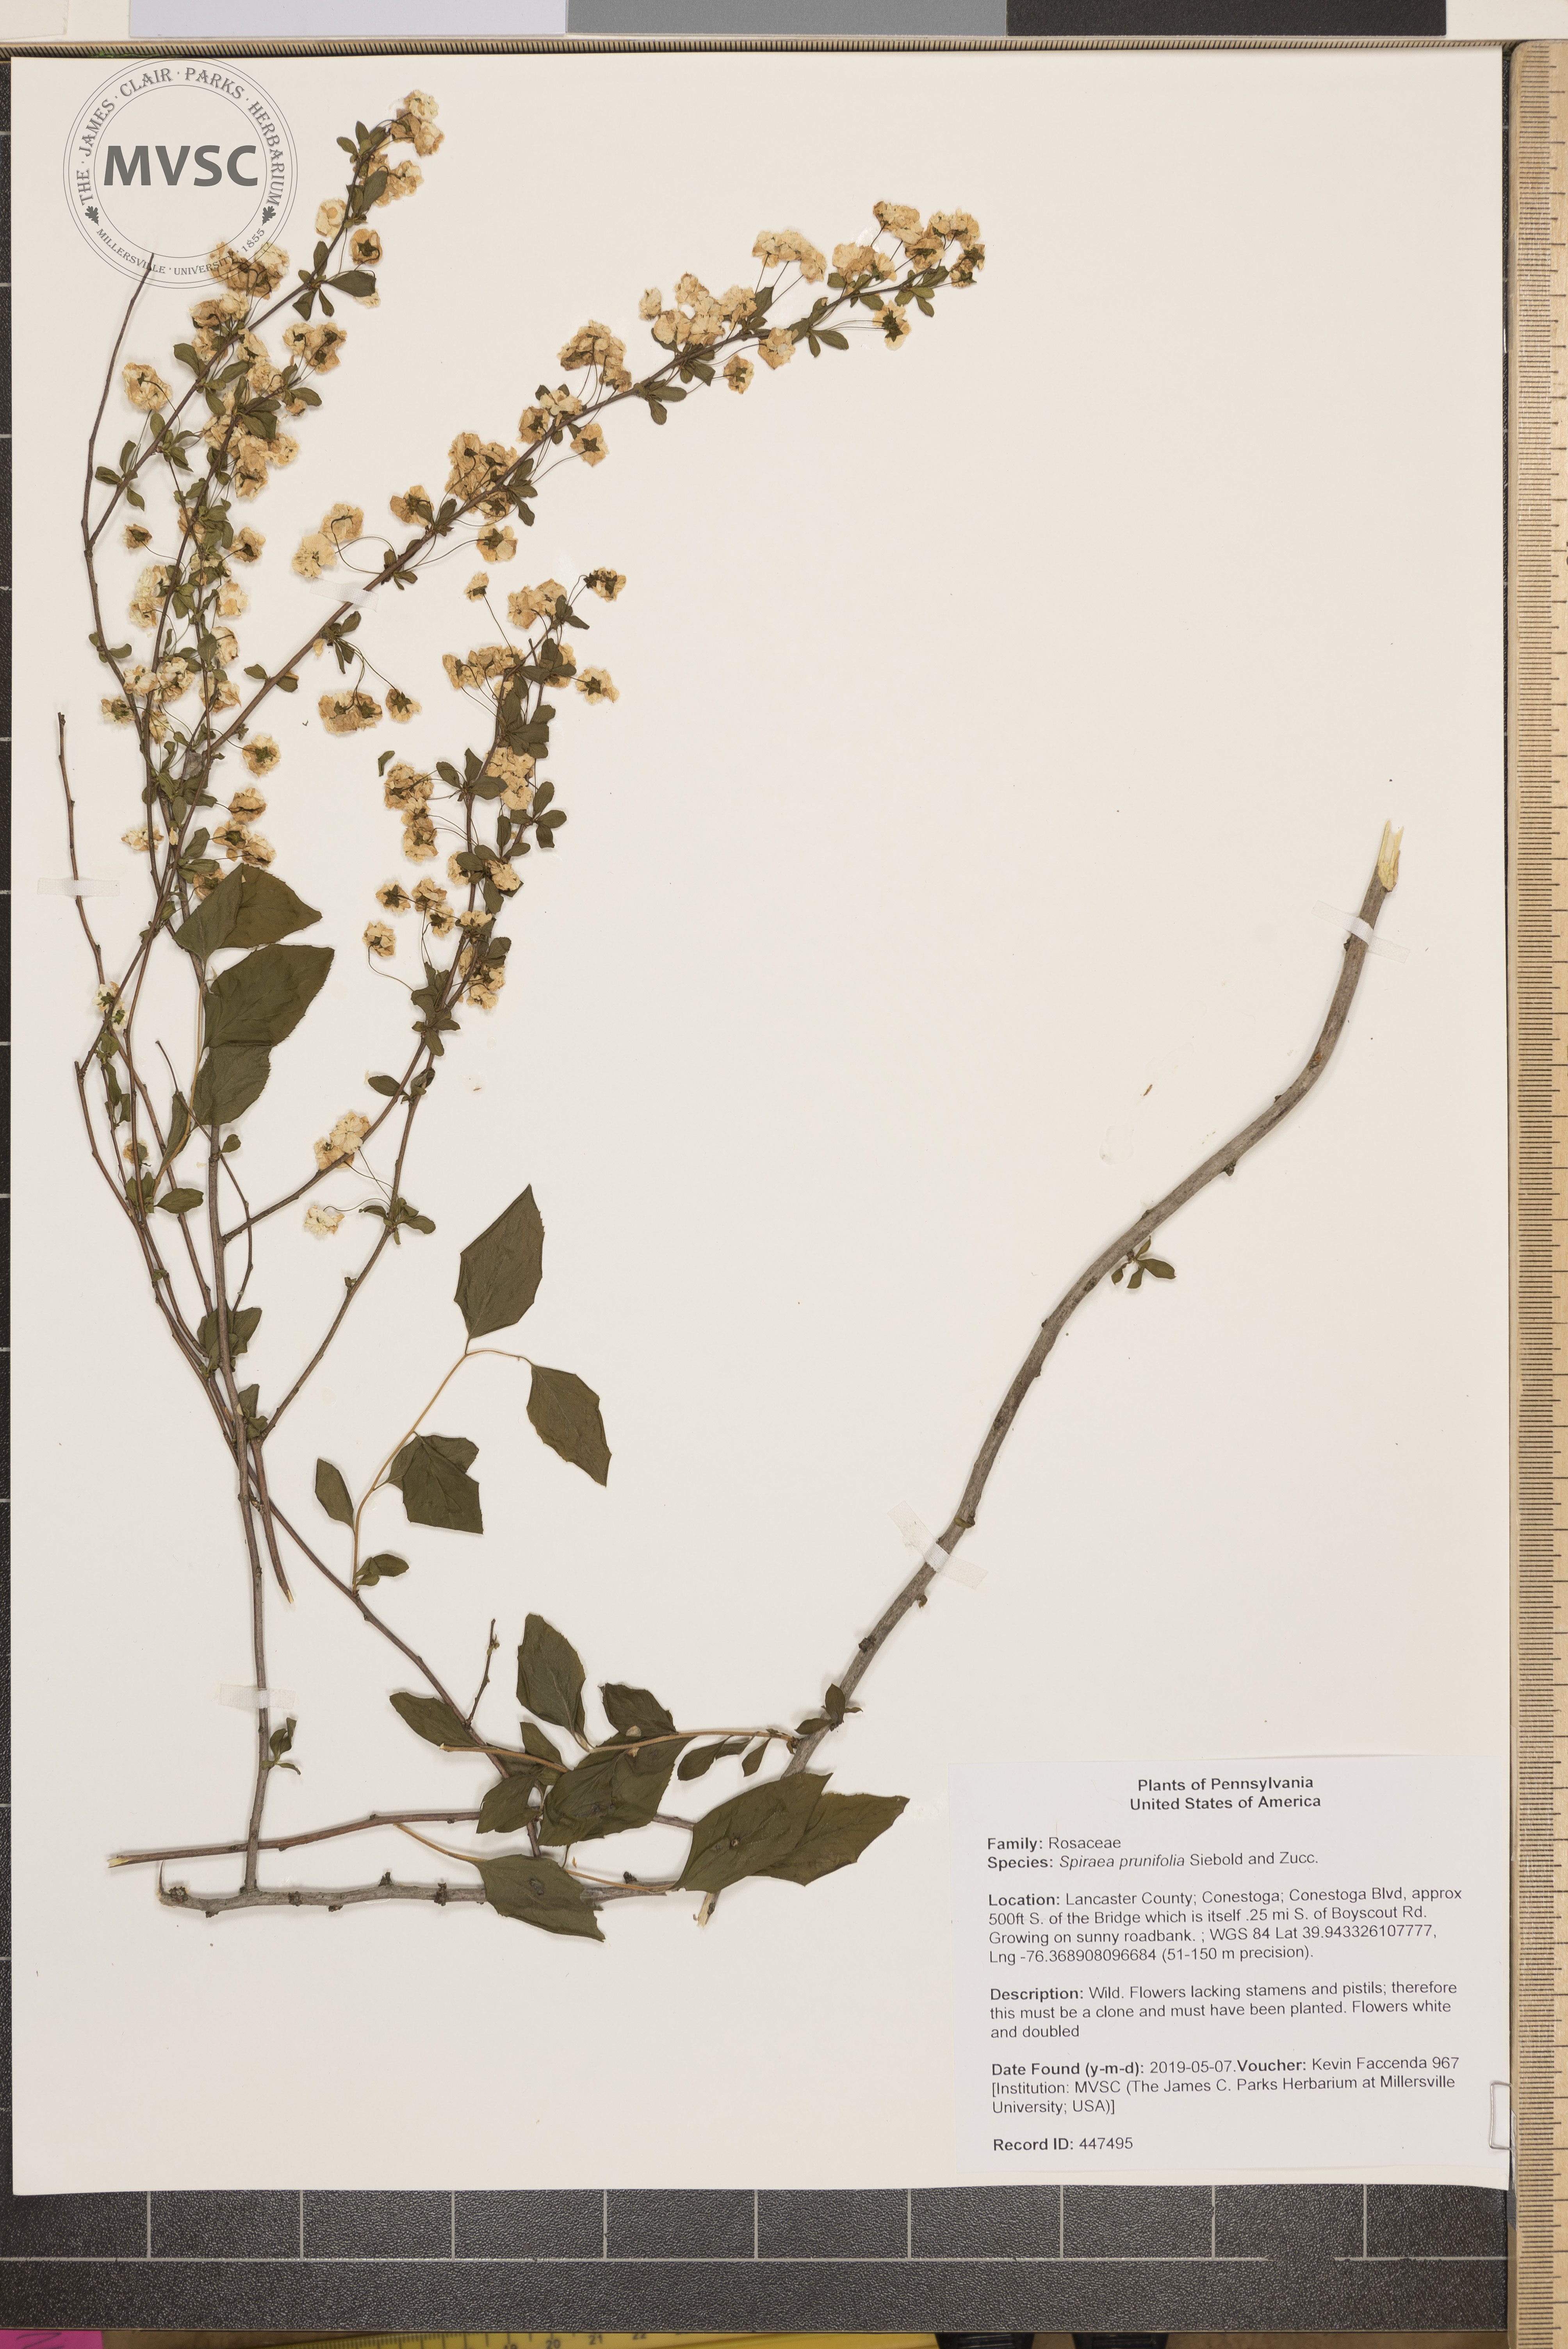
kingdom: Plantae
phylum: Tracheophyta
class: Magnoliopsida
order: Rosales
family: Rosaceae
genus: Spiraea
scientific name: Spiraea prunifolia
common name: Bridal-wreath spiraea
